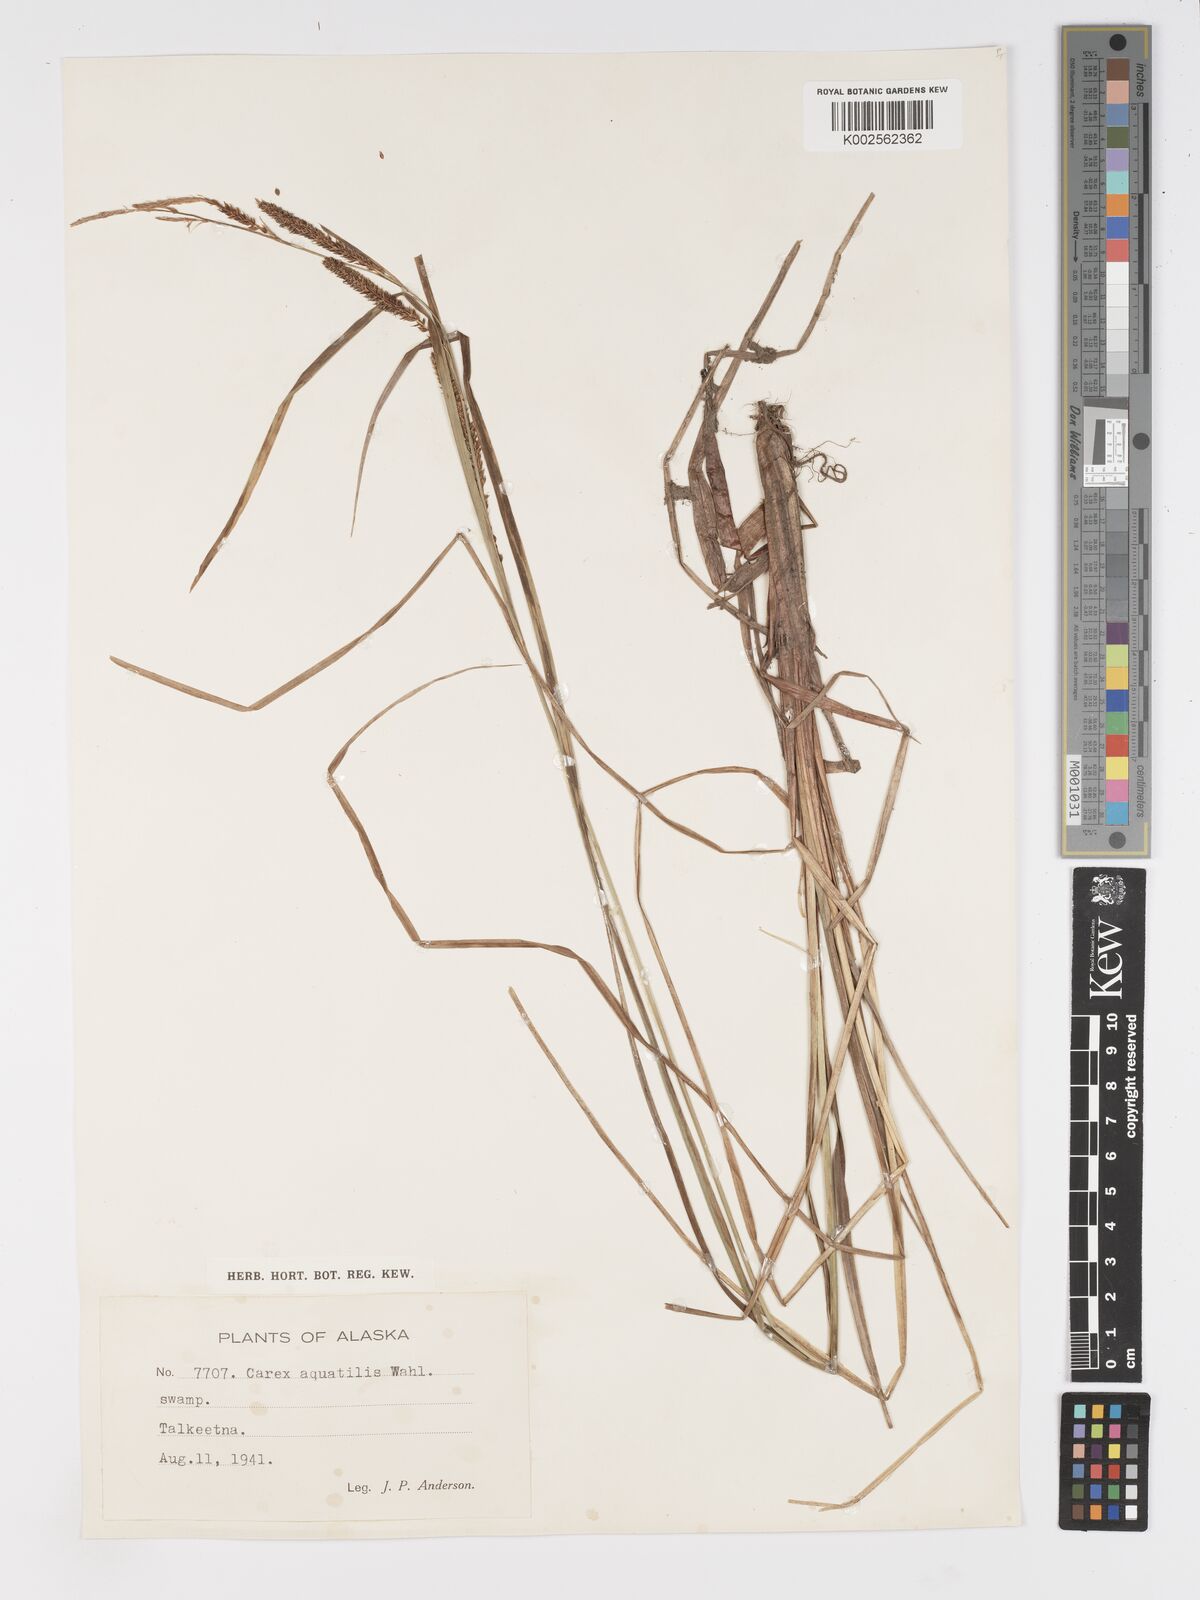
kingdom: Plantae
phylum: Tracheophyta
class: Liliopsida
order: Poales
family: Cyperaceae
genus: Carex
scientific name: Carex aquatilis
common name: Water sedge
